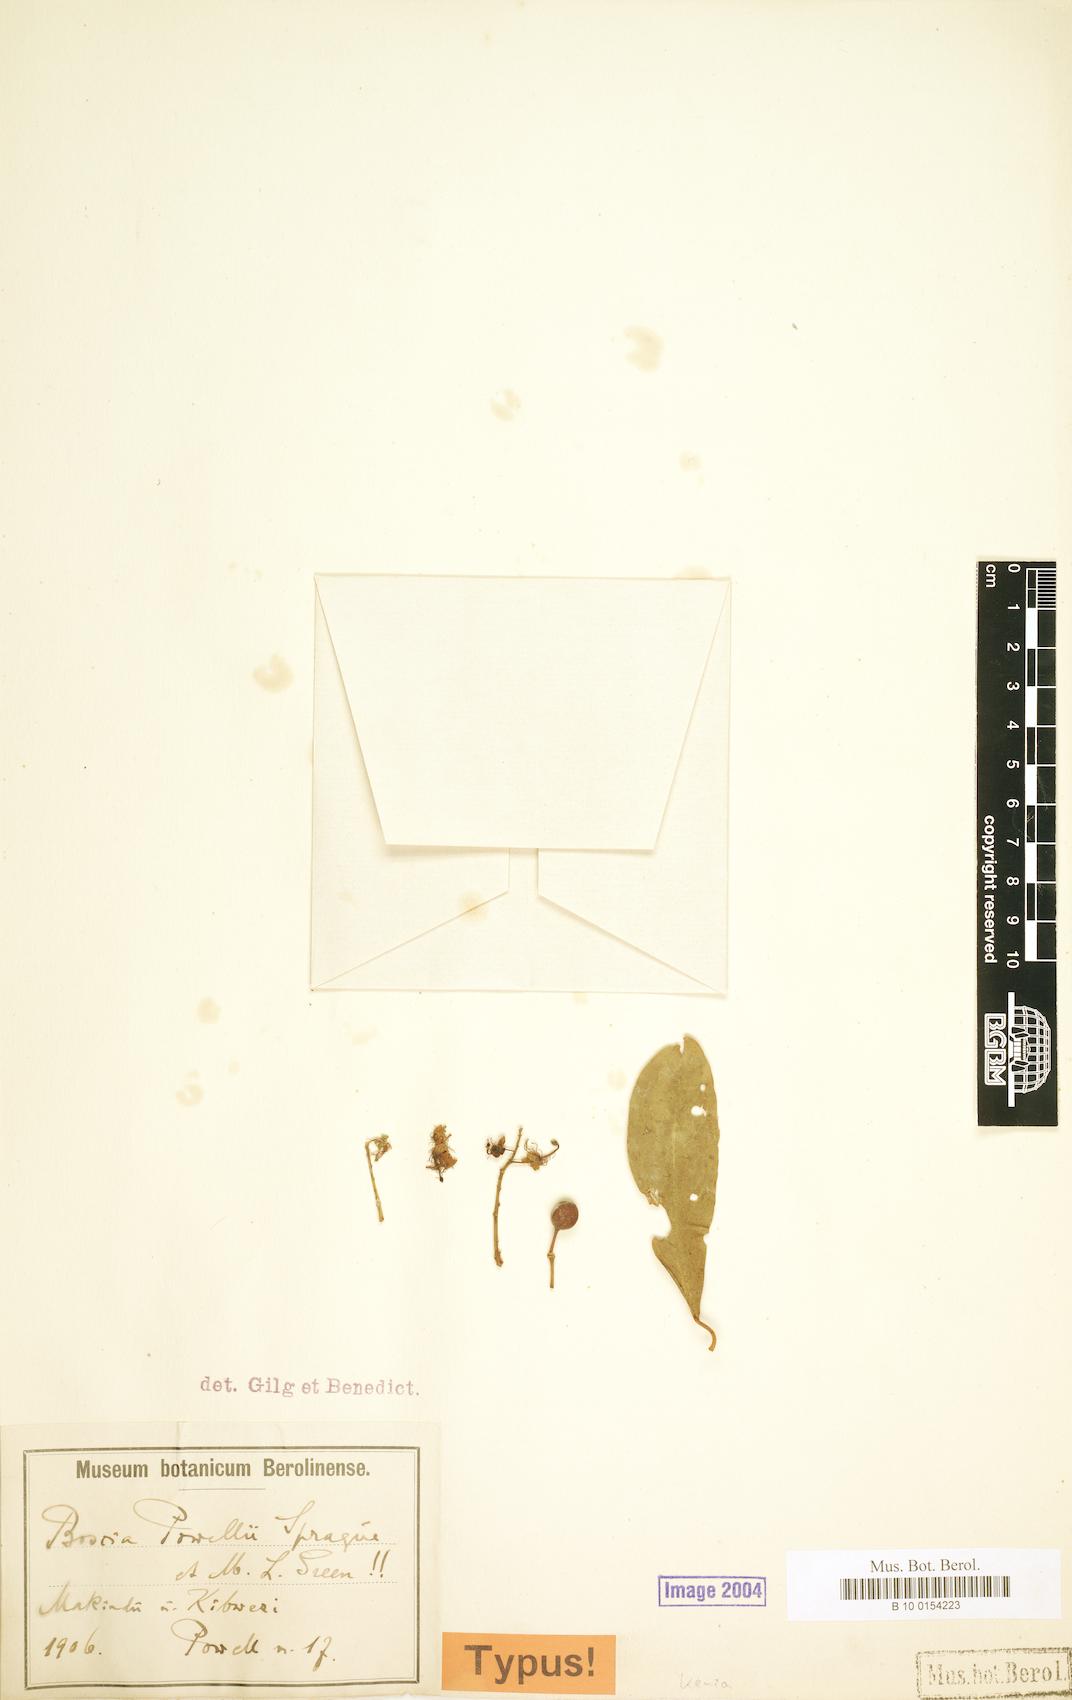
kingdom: Plantae
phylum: Tracheophyta
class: Magnoliopsida
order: Brassicales
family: Capparaceae
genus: Boscia
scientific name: Boscia salicifolia
